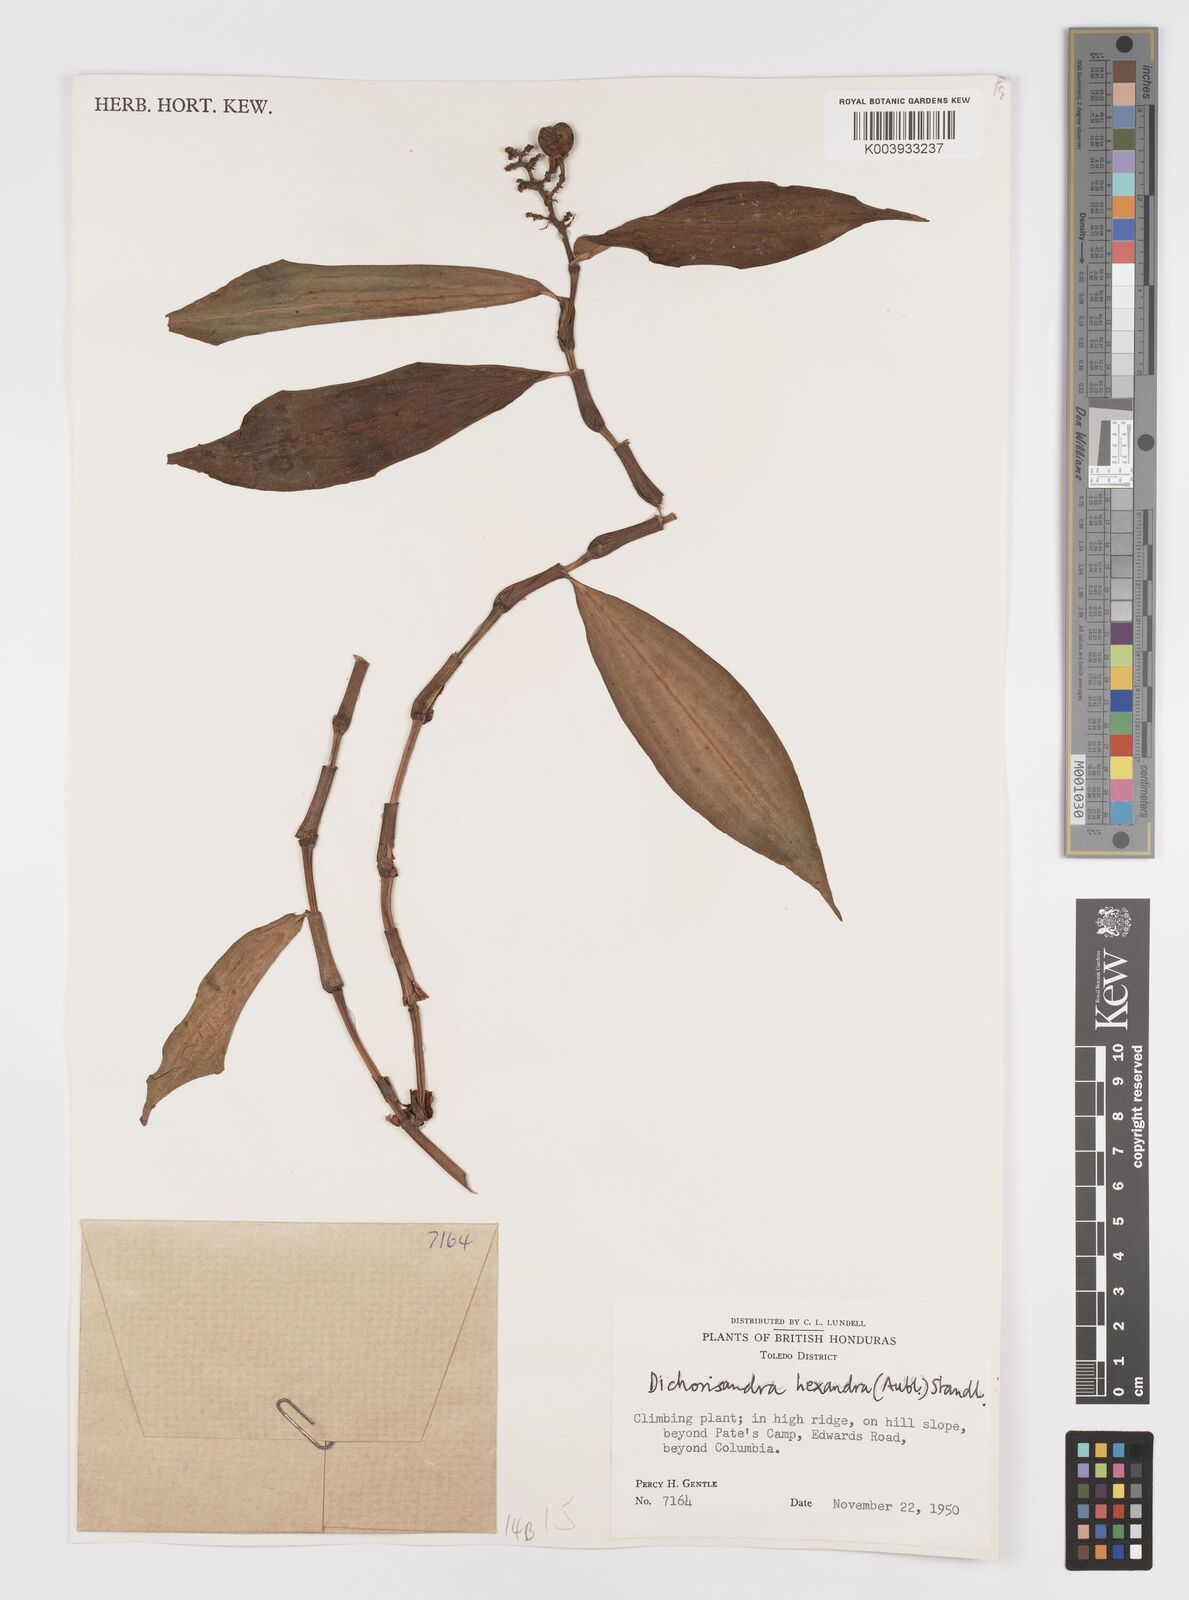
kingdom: Plantae
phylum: Tracheophyta
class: Liliopsida
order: Commelinales
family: Commelinaceae
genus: Dichorisandra
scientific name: Dichorisandra hexandra
